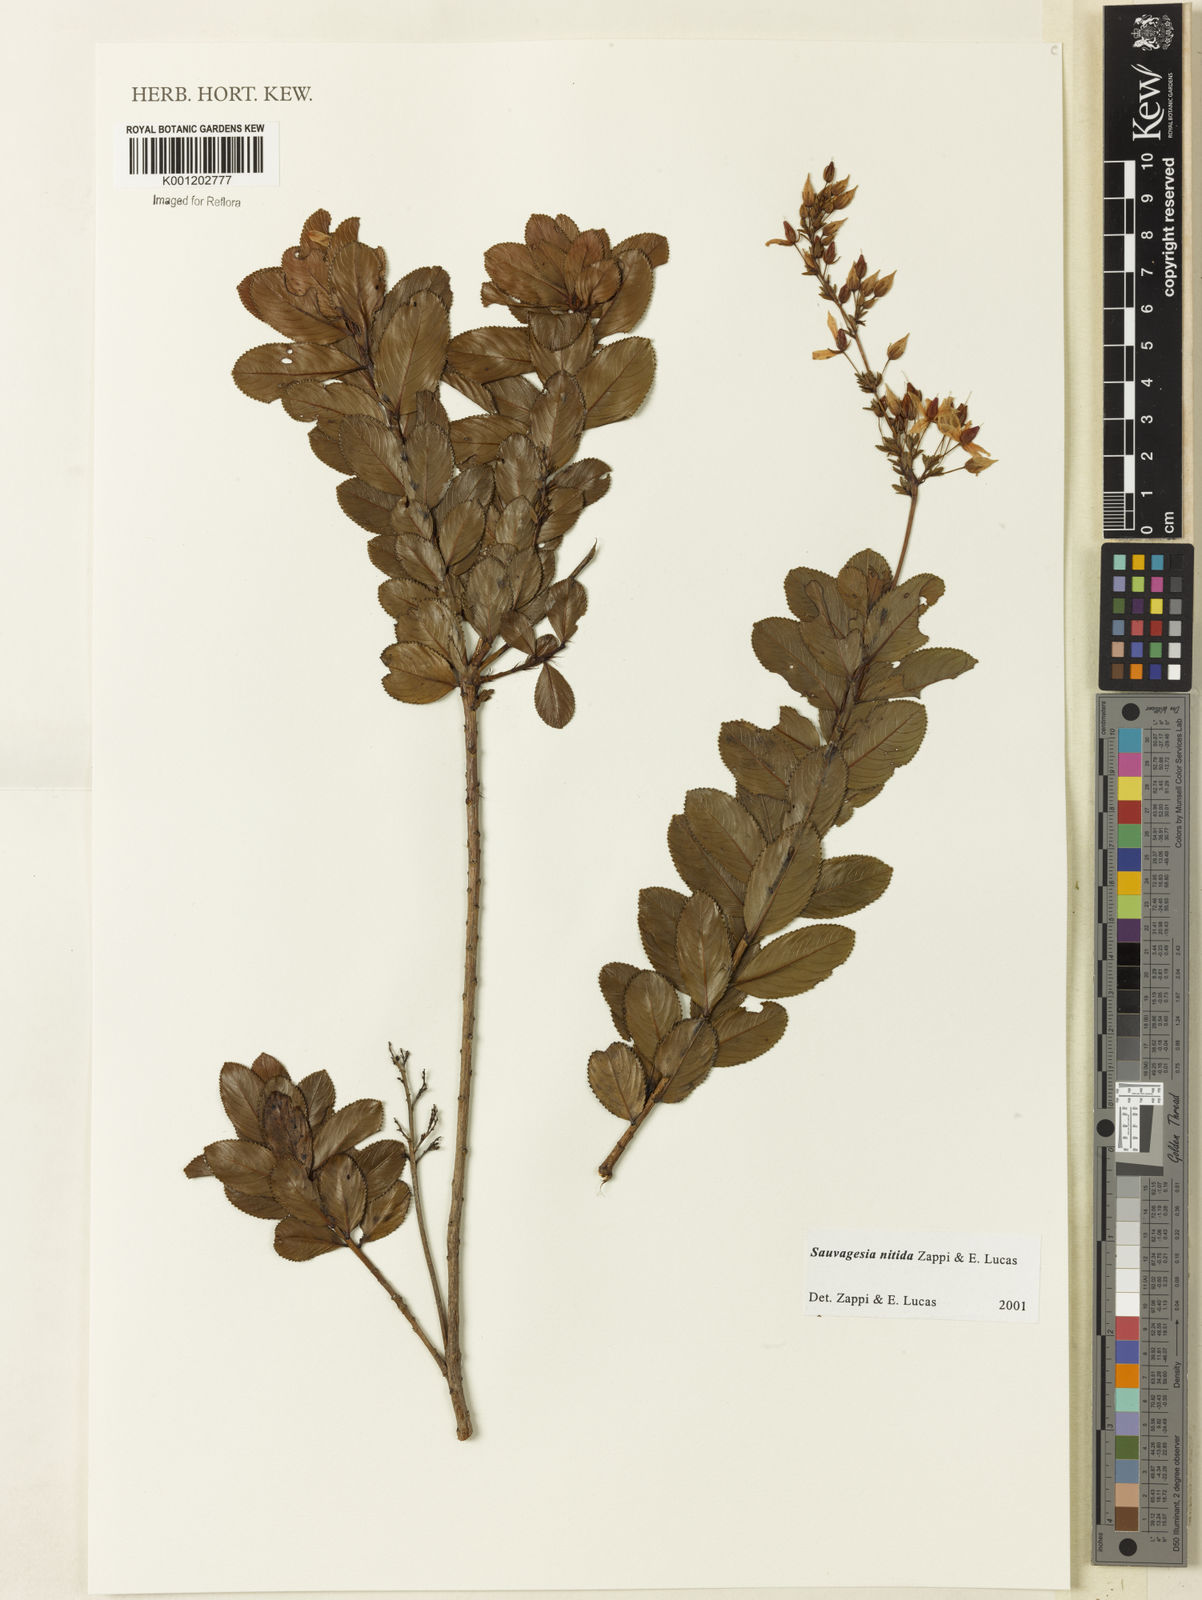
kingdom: Plantae
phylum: Tracheophyta
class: Magnoliopsida
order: Malpighiales
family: Ochnaceae
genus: Sauvagesia
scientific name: Sauvagesia nitida
